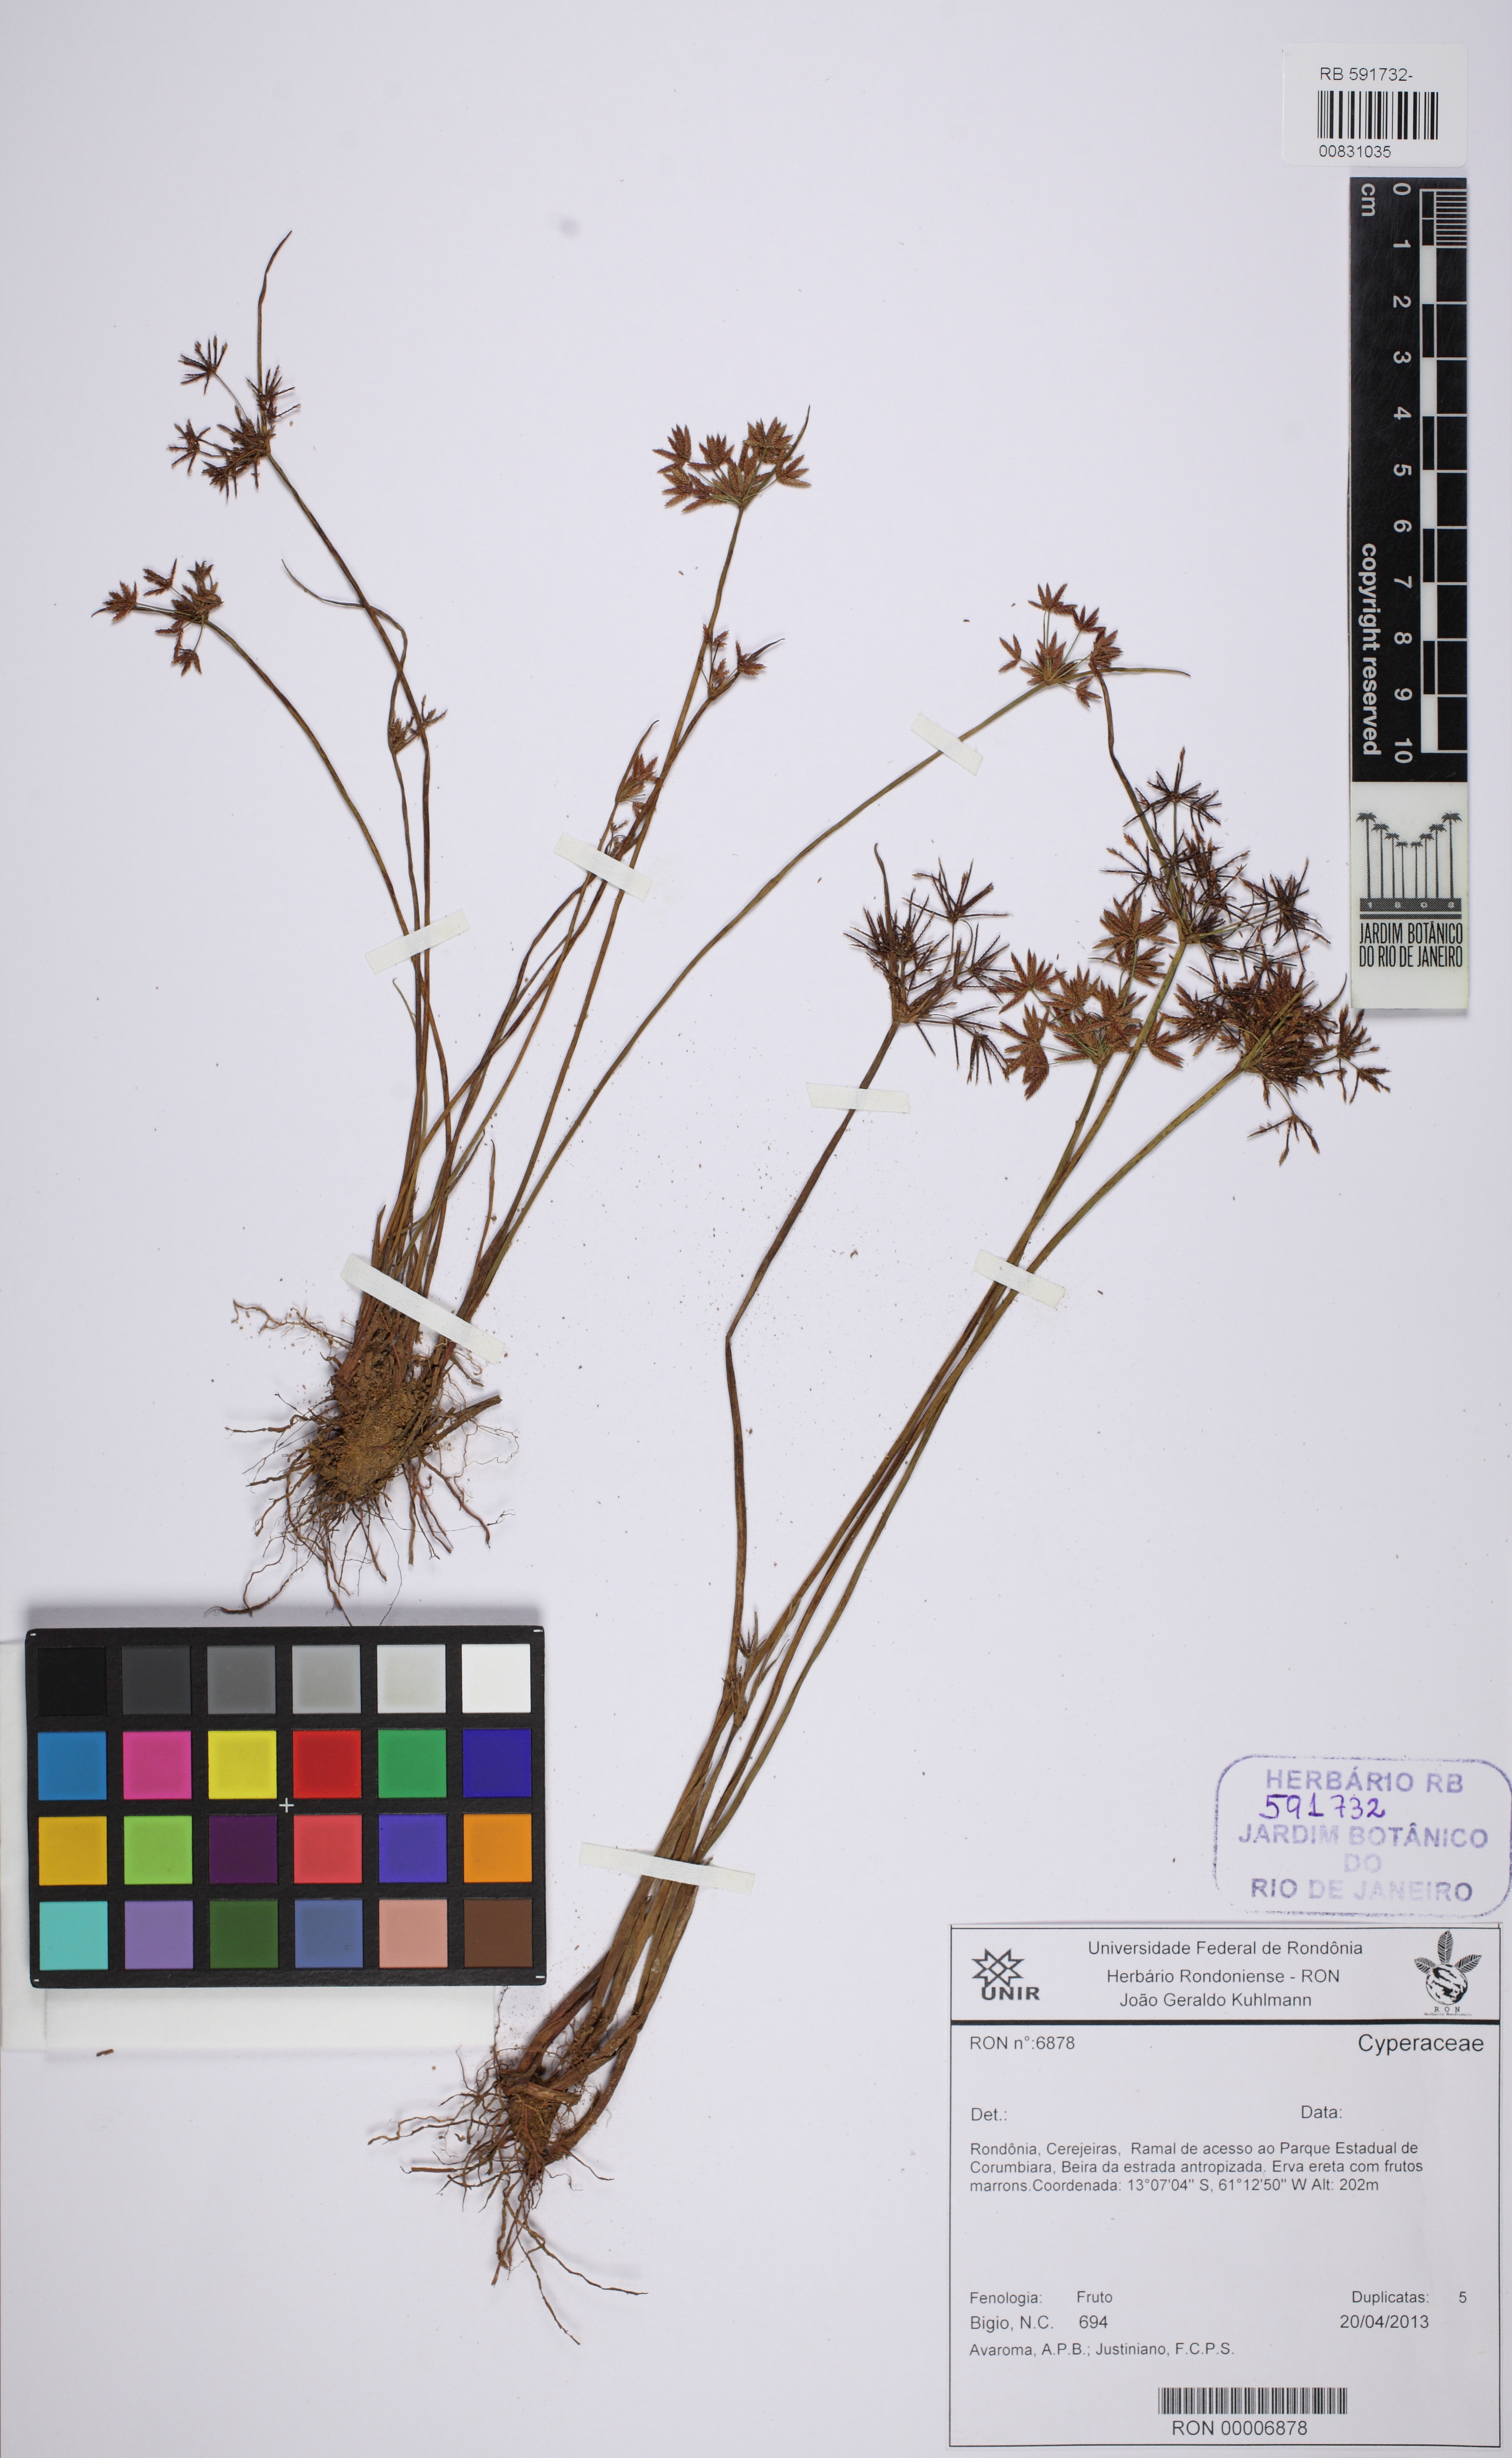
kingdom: Plantae
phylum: Tracheophyta
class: Liliopsida
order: Poales
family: Cyperaceae
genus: Cyperus
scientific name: Cyperus haspan
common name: Haspan flatsedge
